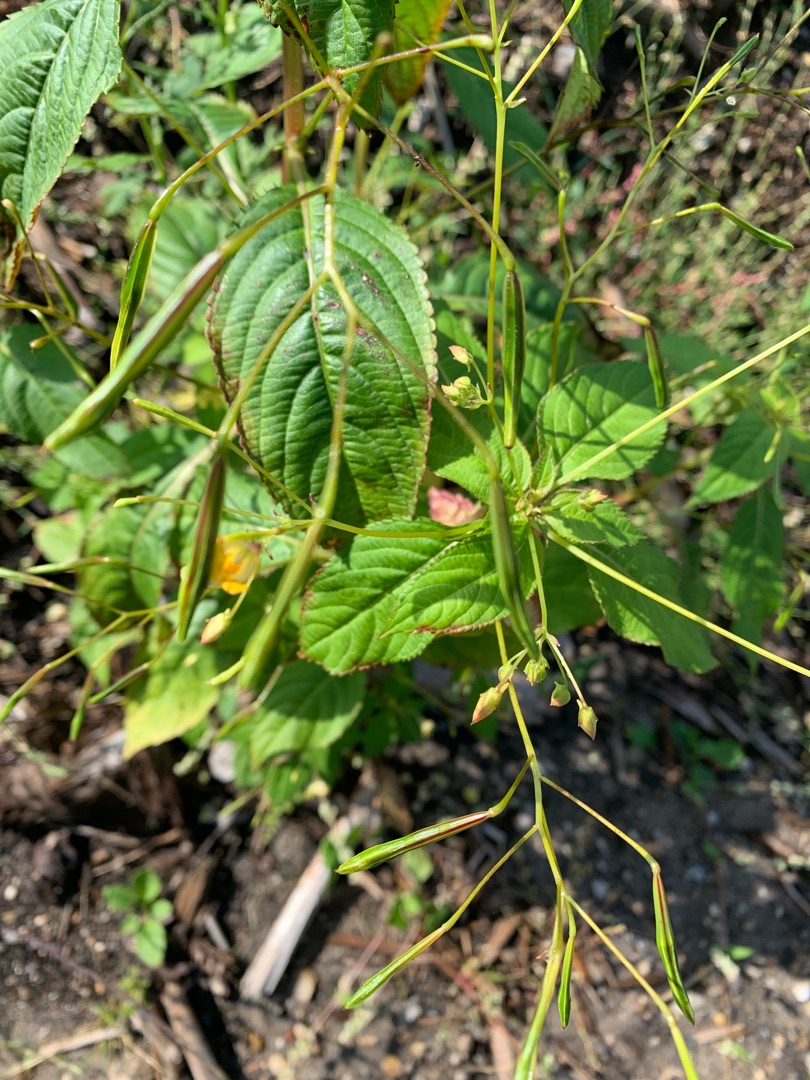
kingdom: Plantae
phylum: Tracheophyta
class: Magnoliopsida
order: Ericales
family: Balsaminaceae
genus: Impatiens
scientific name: Impatiens parviflora
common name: Småblomstret balsamin
